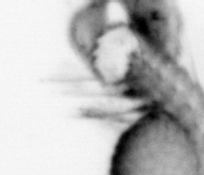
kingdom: Animalia
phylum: Annelida
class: Polychaeta
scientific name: Polychaeta
